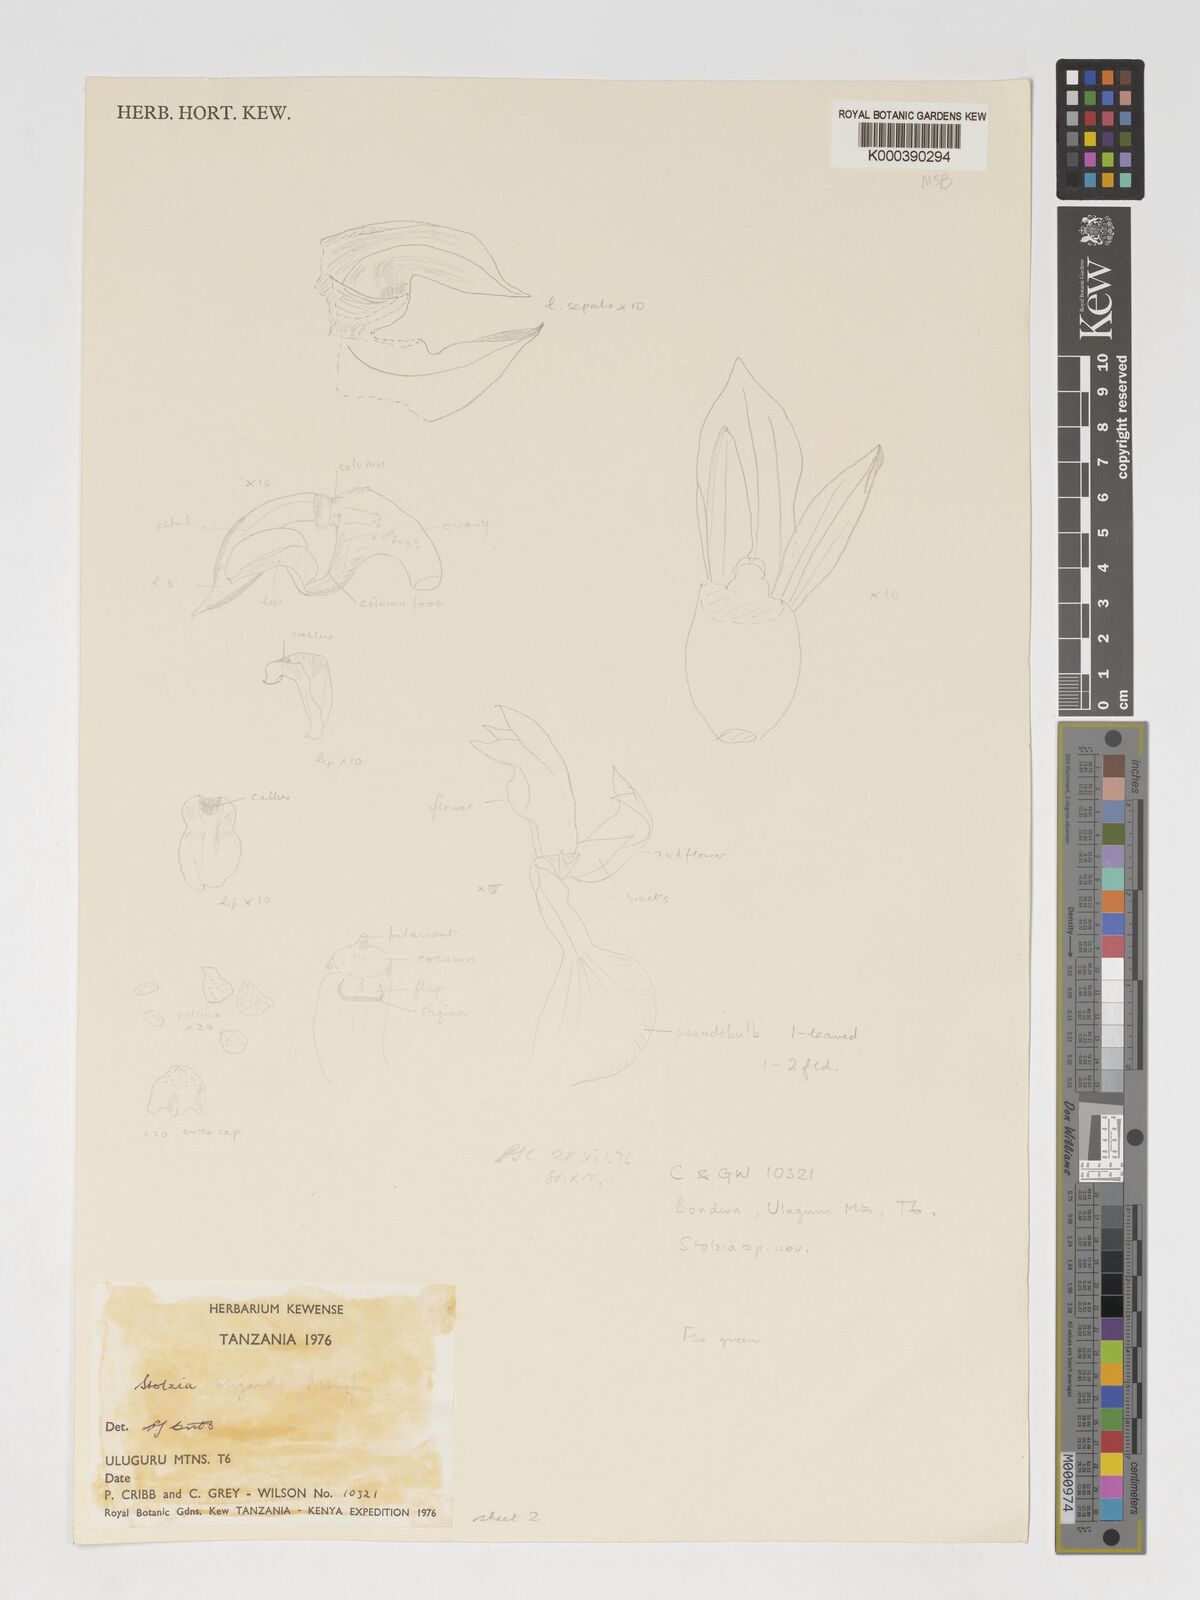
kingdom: Plantae
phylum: Tracheophyta
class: Liliopsida
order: Asparagales
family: Orchidaceae
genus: Porpax
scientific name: Porpax oligantha
